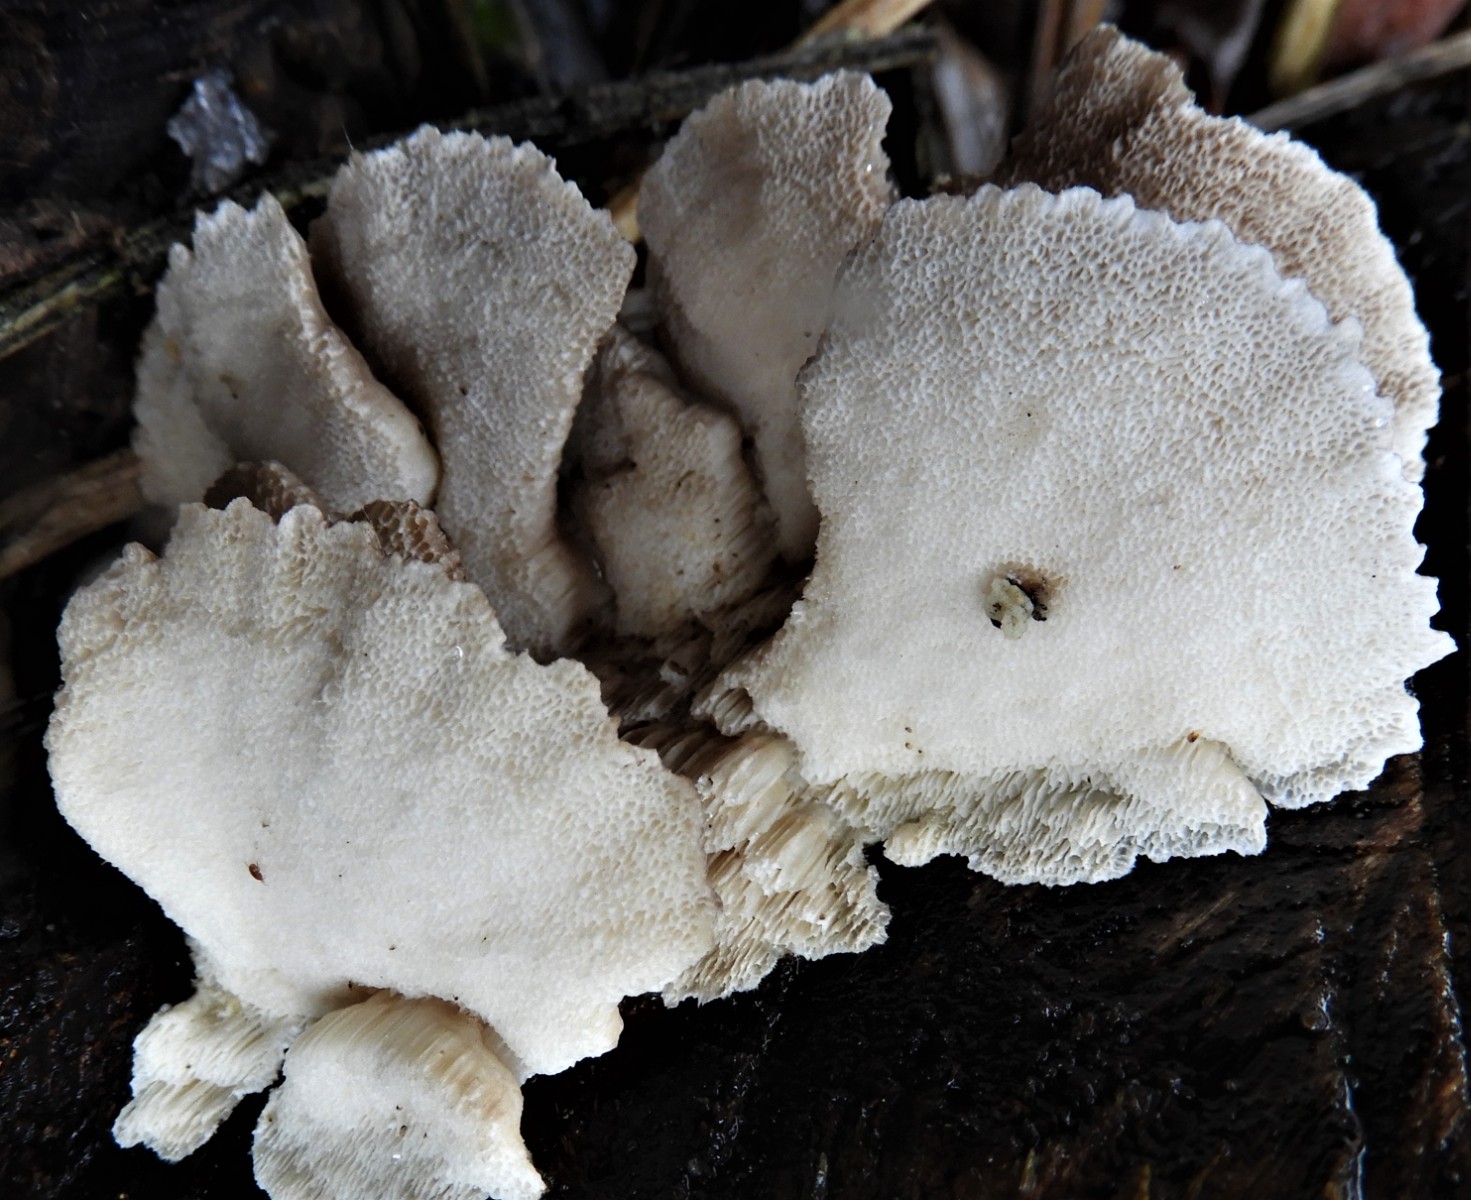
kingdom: Fungi
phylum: Basidiomycota
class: Agaricomycetes
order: Polyporales
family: Polyporaceae
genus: Trametes
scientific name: Trametes ochracea
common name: bæltet læderporesvamp
